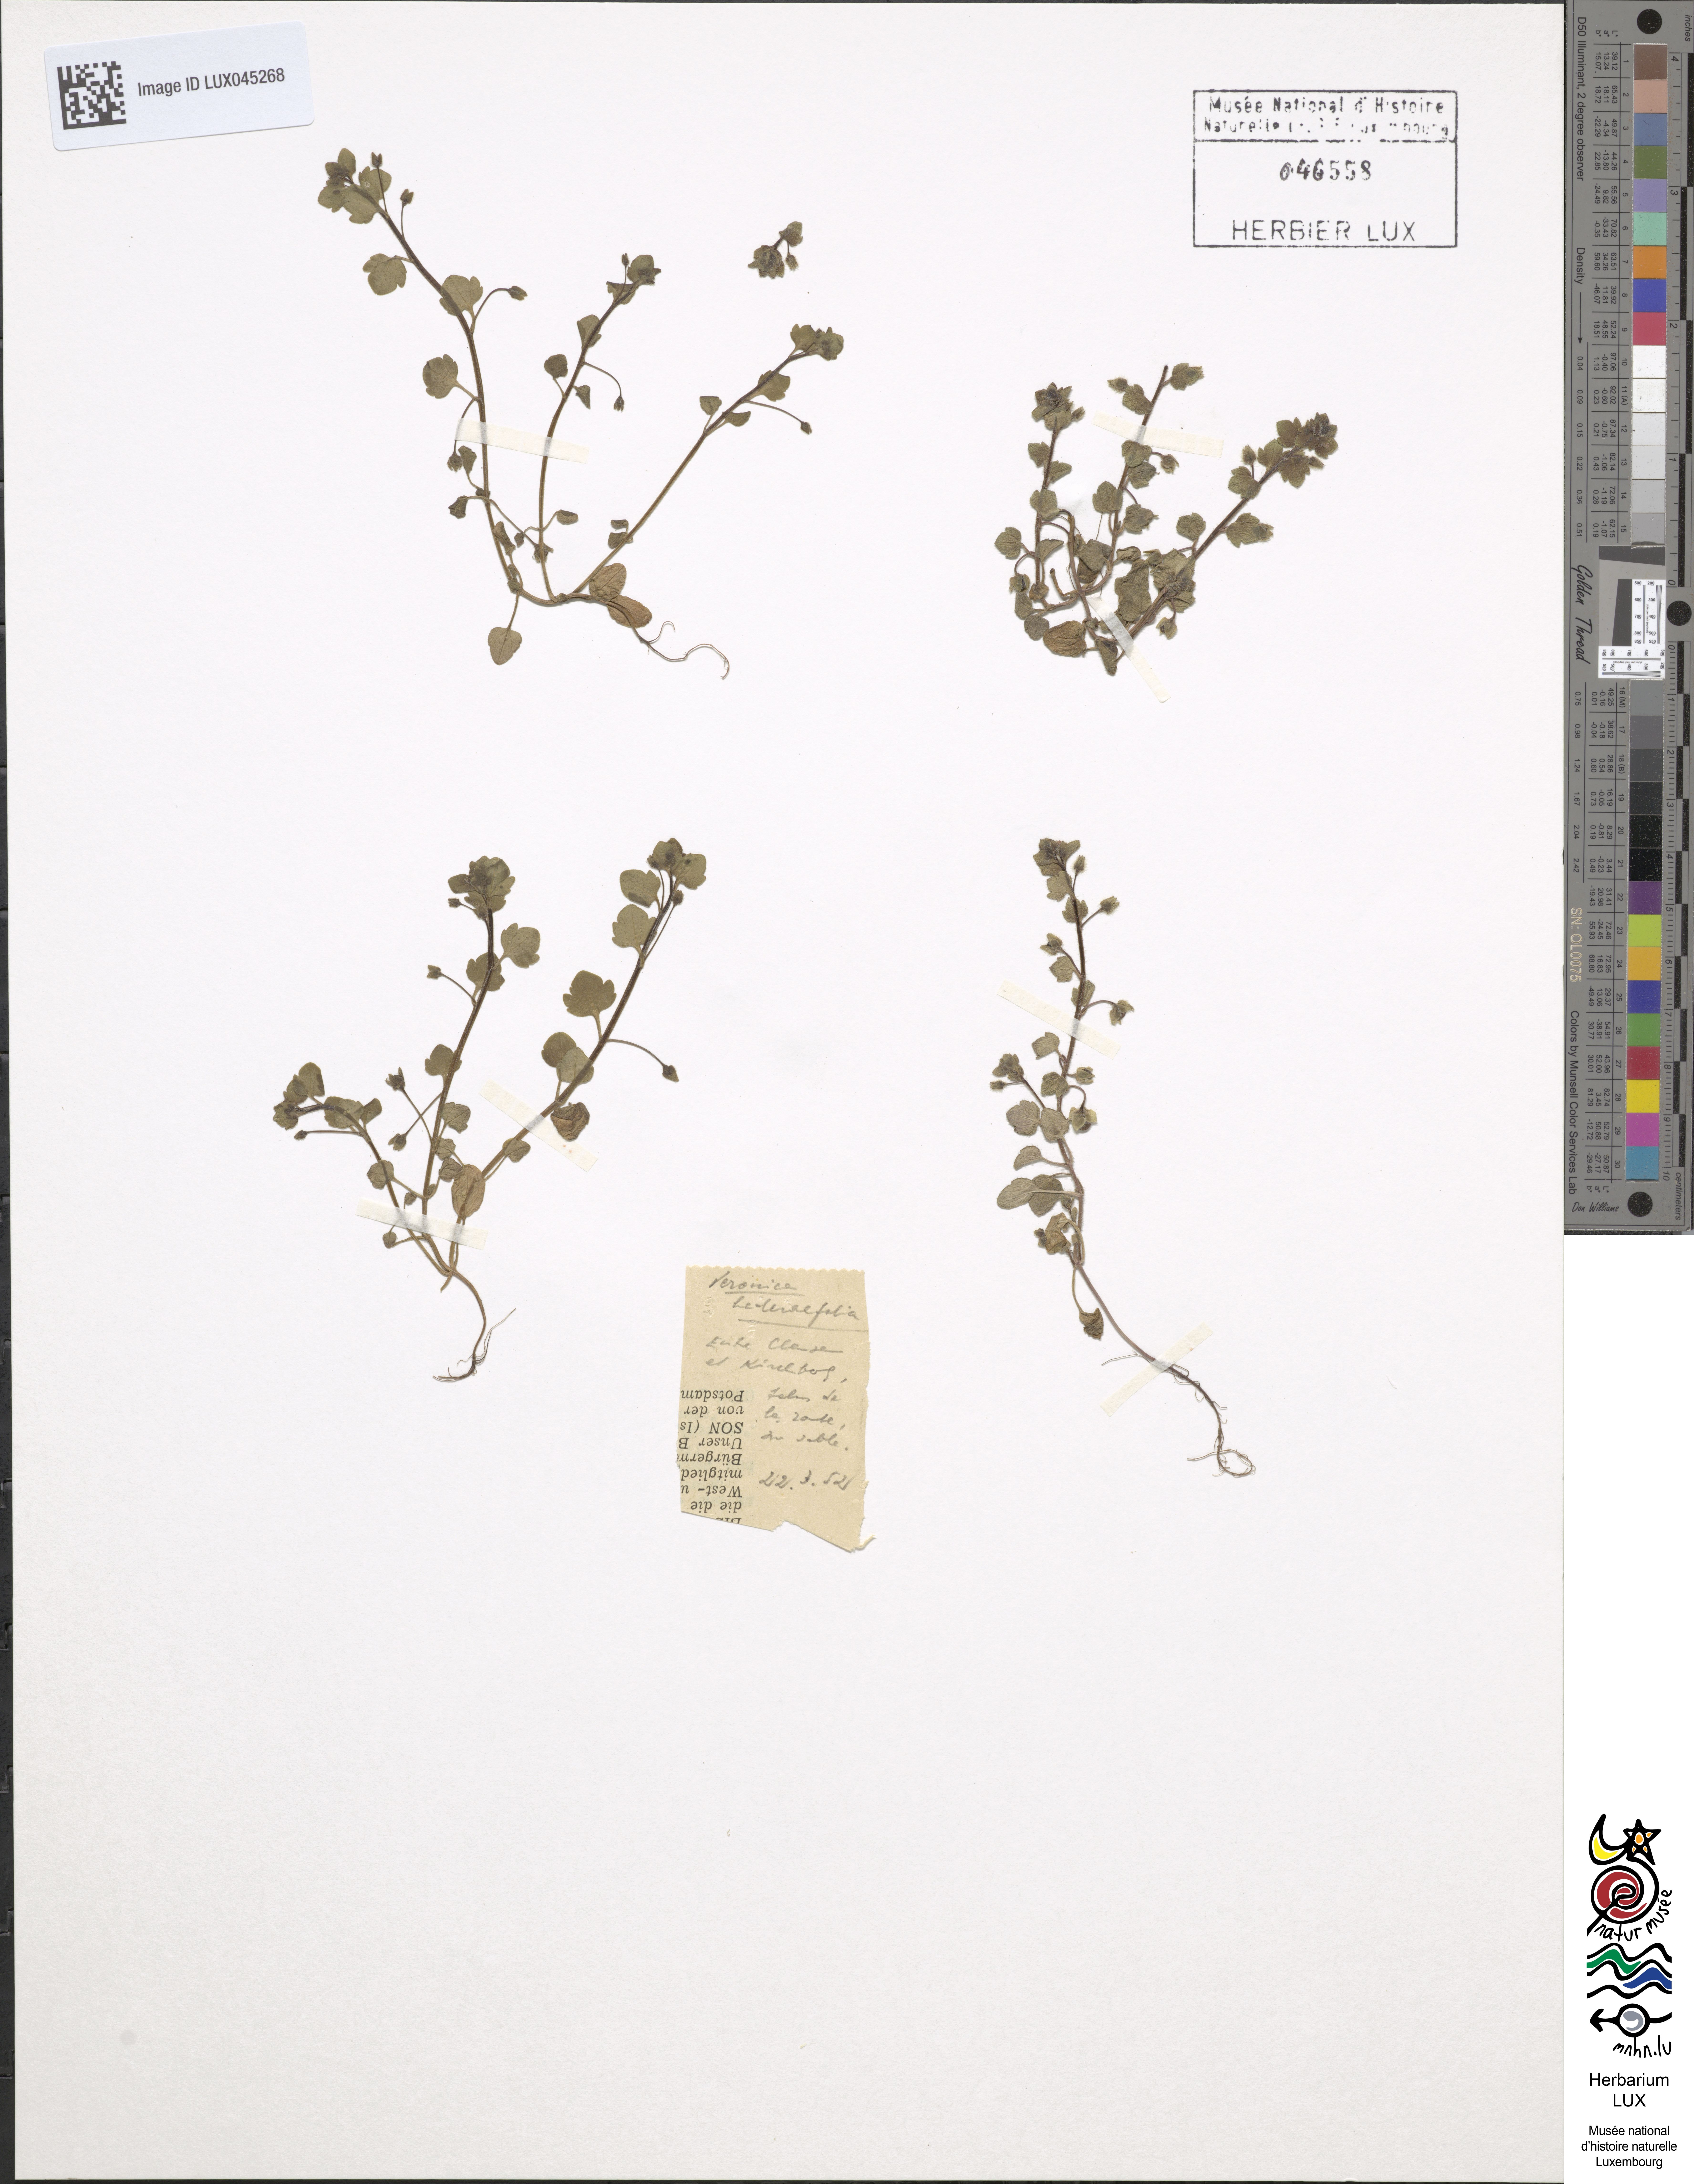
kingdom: Plantae
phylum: Tracheophyta
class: Magnoliopsida
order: Lamiales
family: Plantaginaceae
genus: Veronica
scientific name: Veronica hederifolia
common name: Ivy-leaved speedwell
